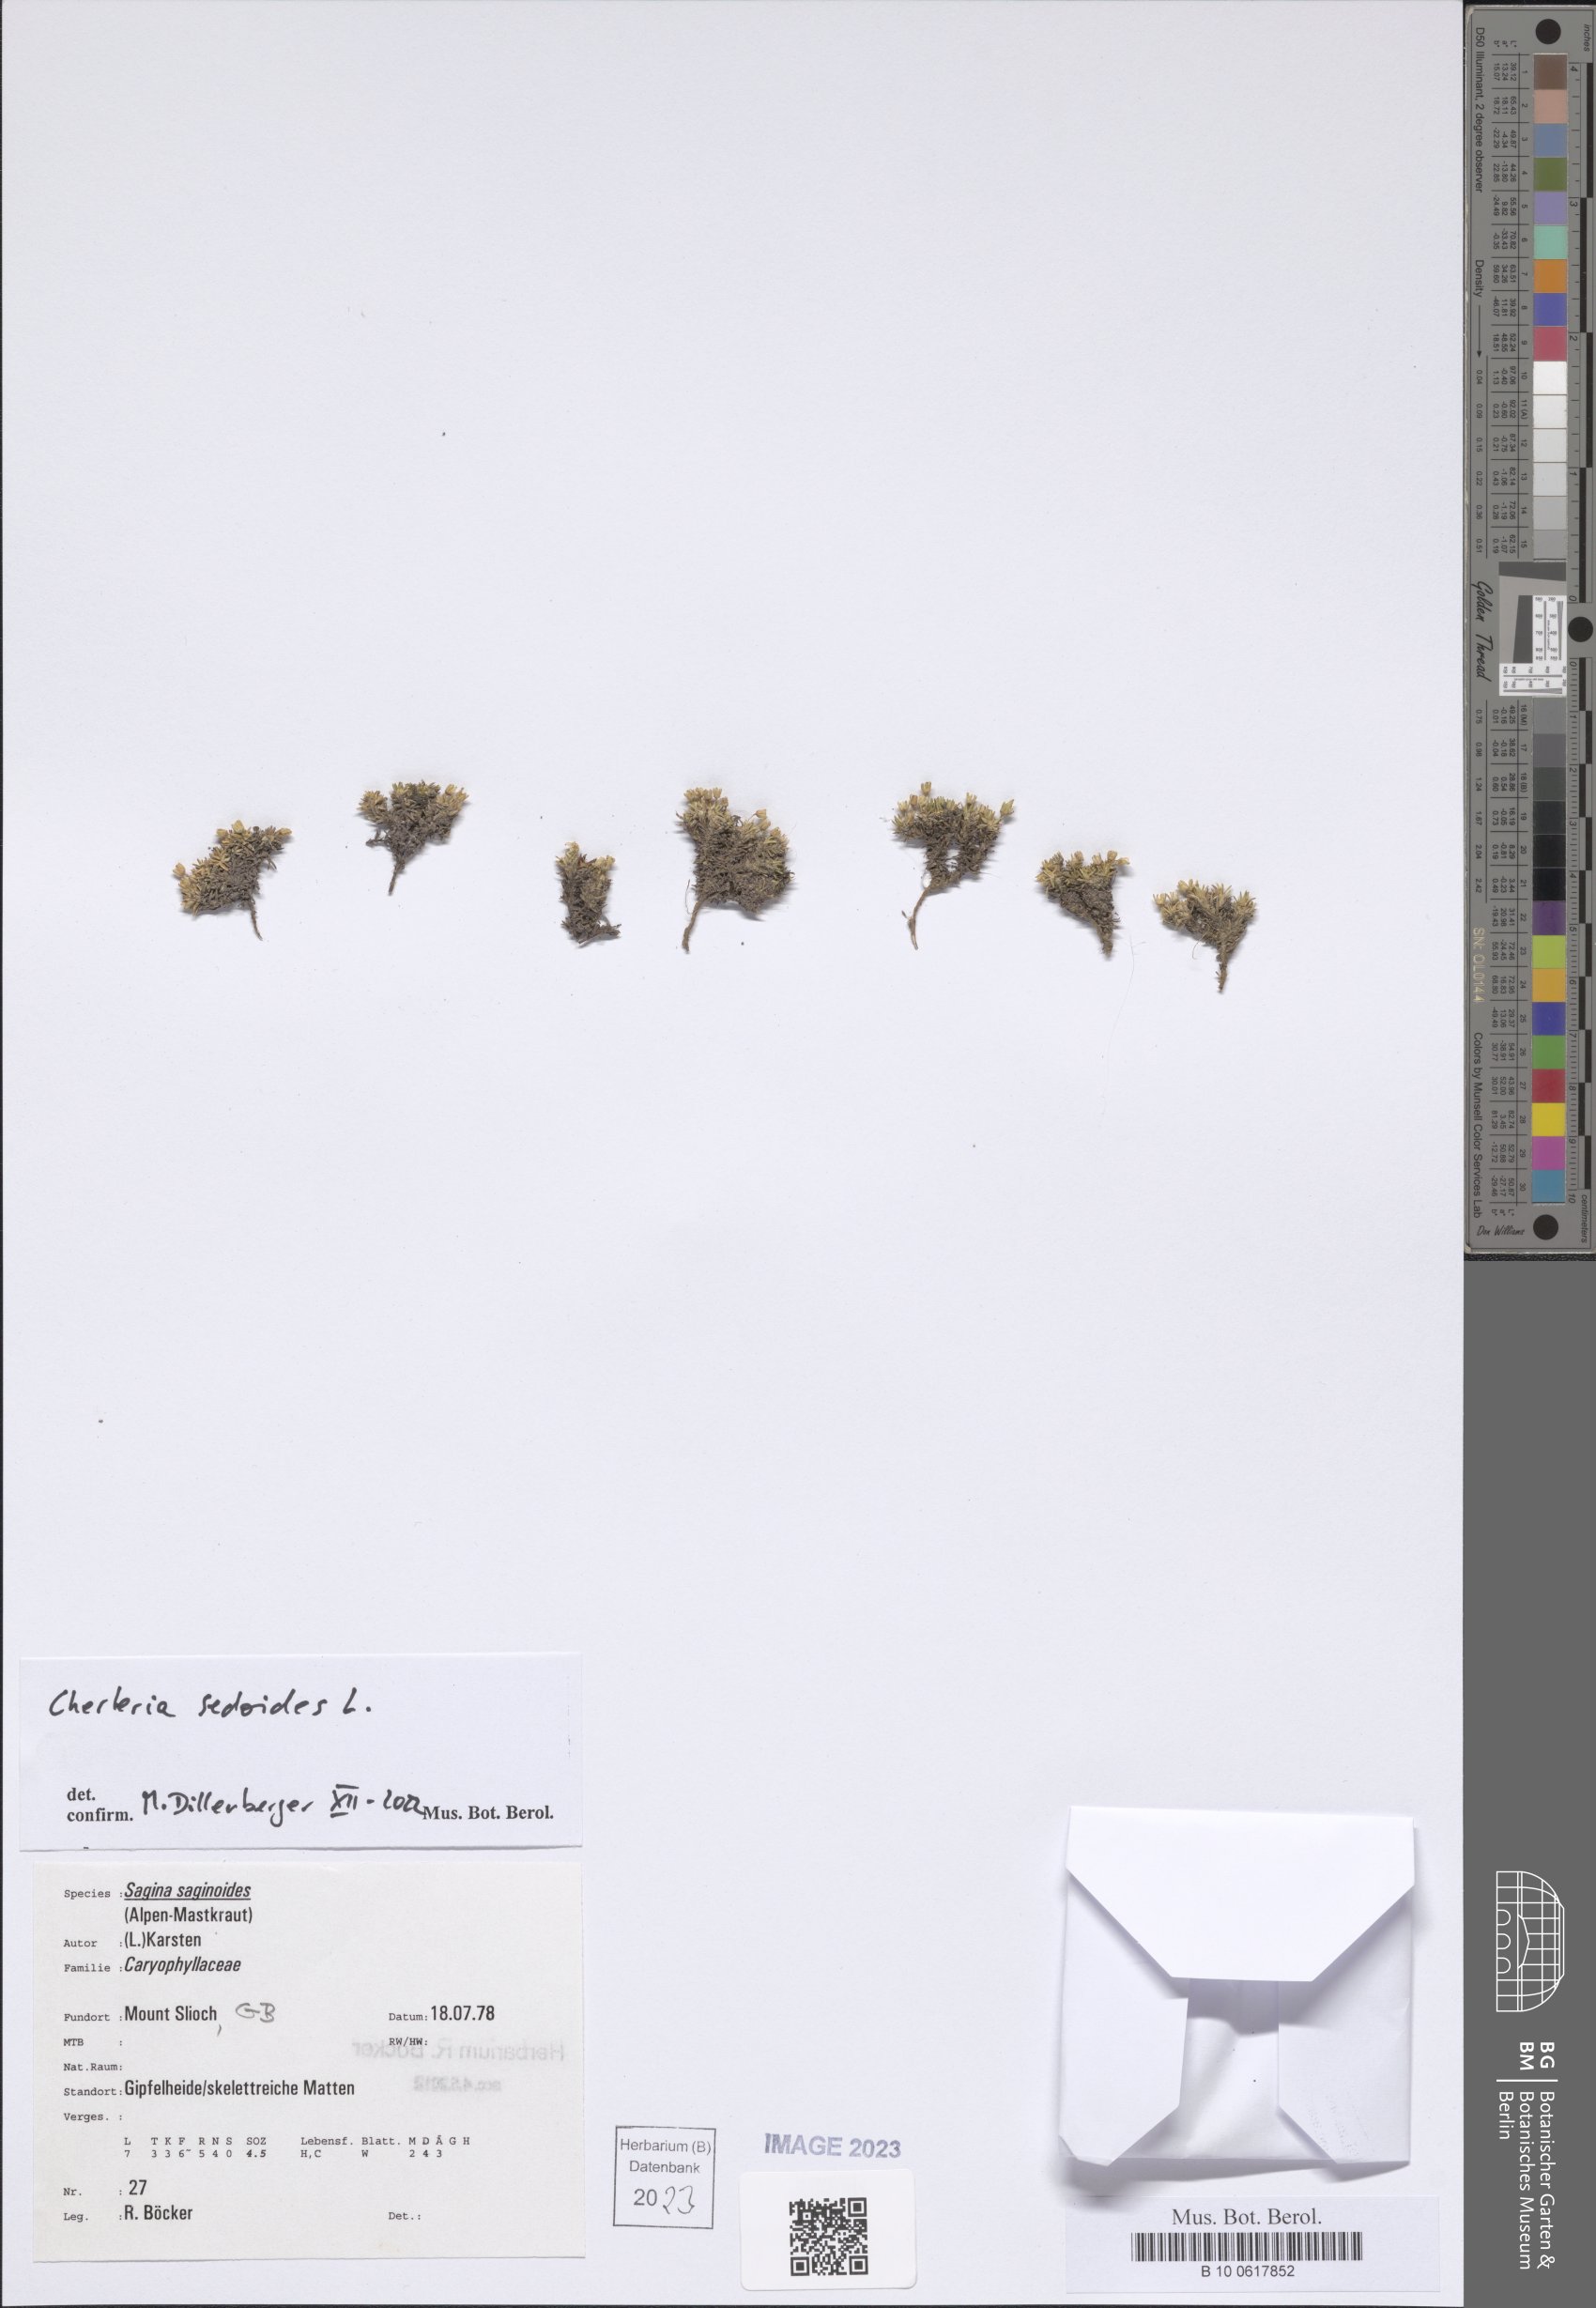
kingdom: Plantae
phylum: Tracheophyta
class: Magnoliopsida
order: Caryophyllales
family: Caryophyllaceae
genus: Cherleria
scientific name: Cherleria sedoides
